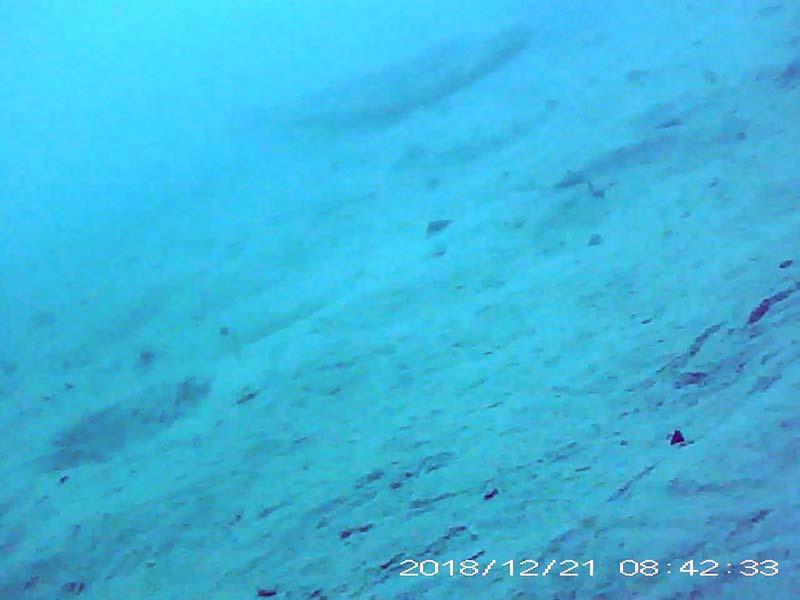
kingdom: Animalia
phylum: Chordata
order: Siluriformes
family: Siluridae
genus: Silurus
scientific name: Silurus
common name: ナマズ
